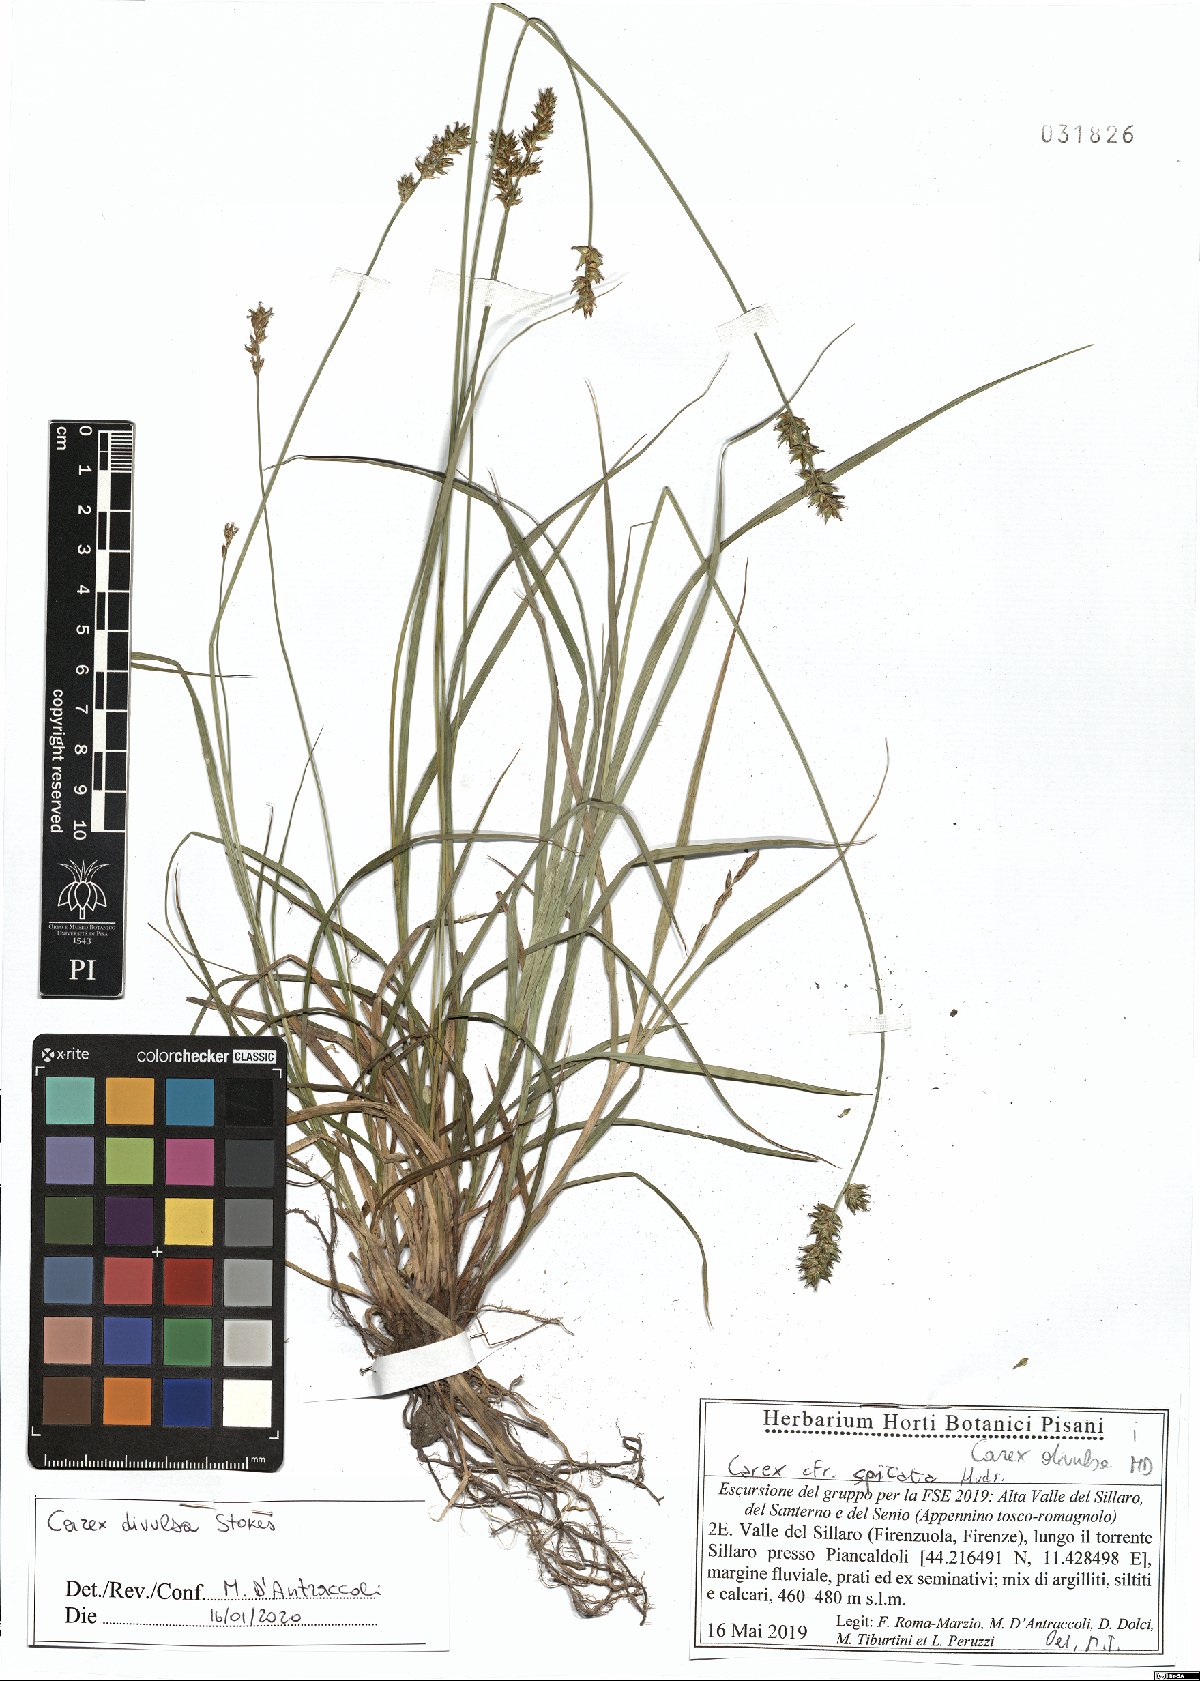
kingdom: Plantae
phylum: Tracheophyta
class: Liliopsida
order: Poales
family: Cyperaceae
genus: Carex
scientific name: Carex divulsa
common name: Grassland sedge
